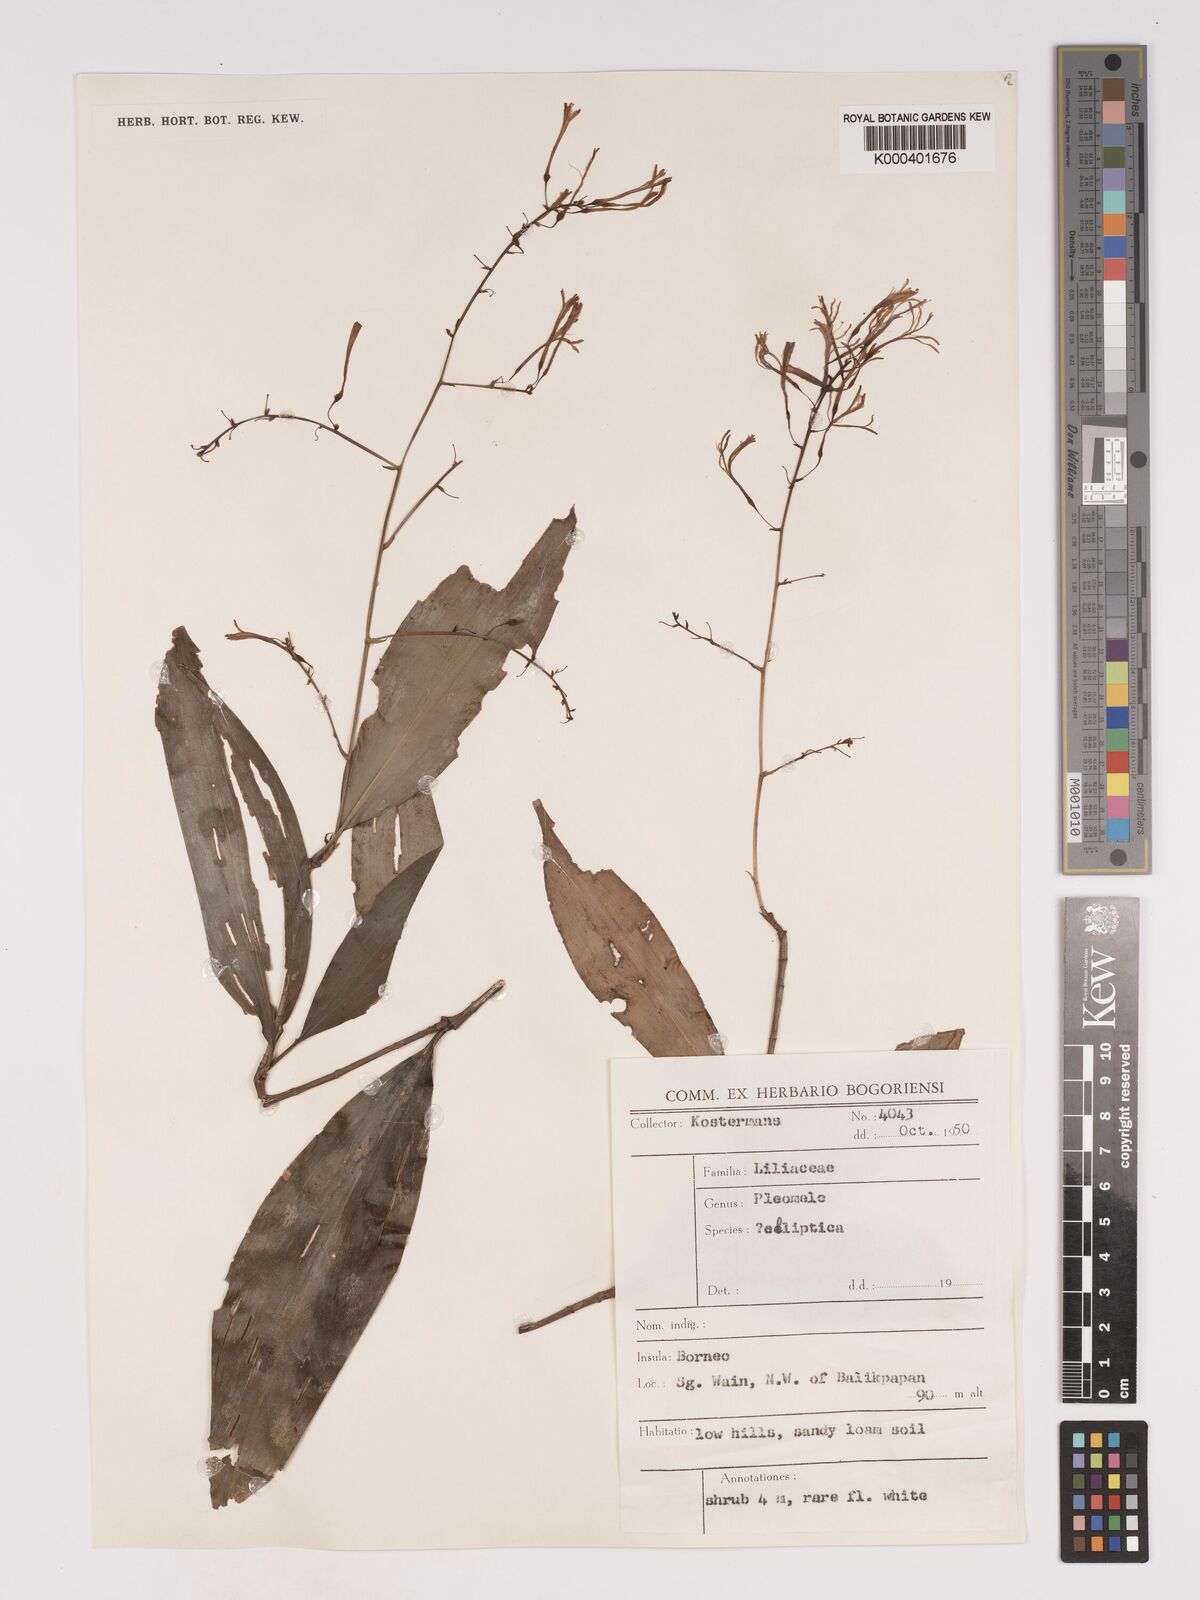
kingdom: Plantae
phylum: Tracheophyta
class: Liliopsida
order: Asparagales
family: Asparagaceae
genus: Dracaena
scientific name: Dracaena elliptica
